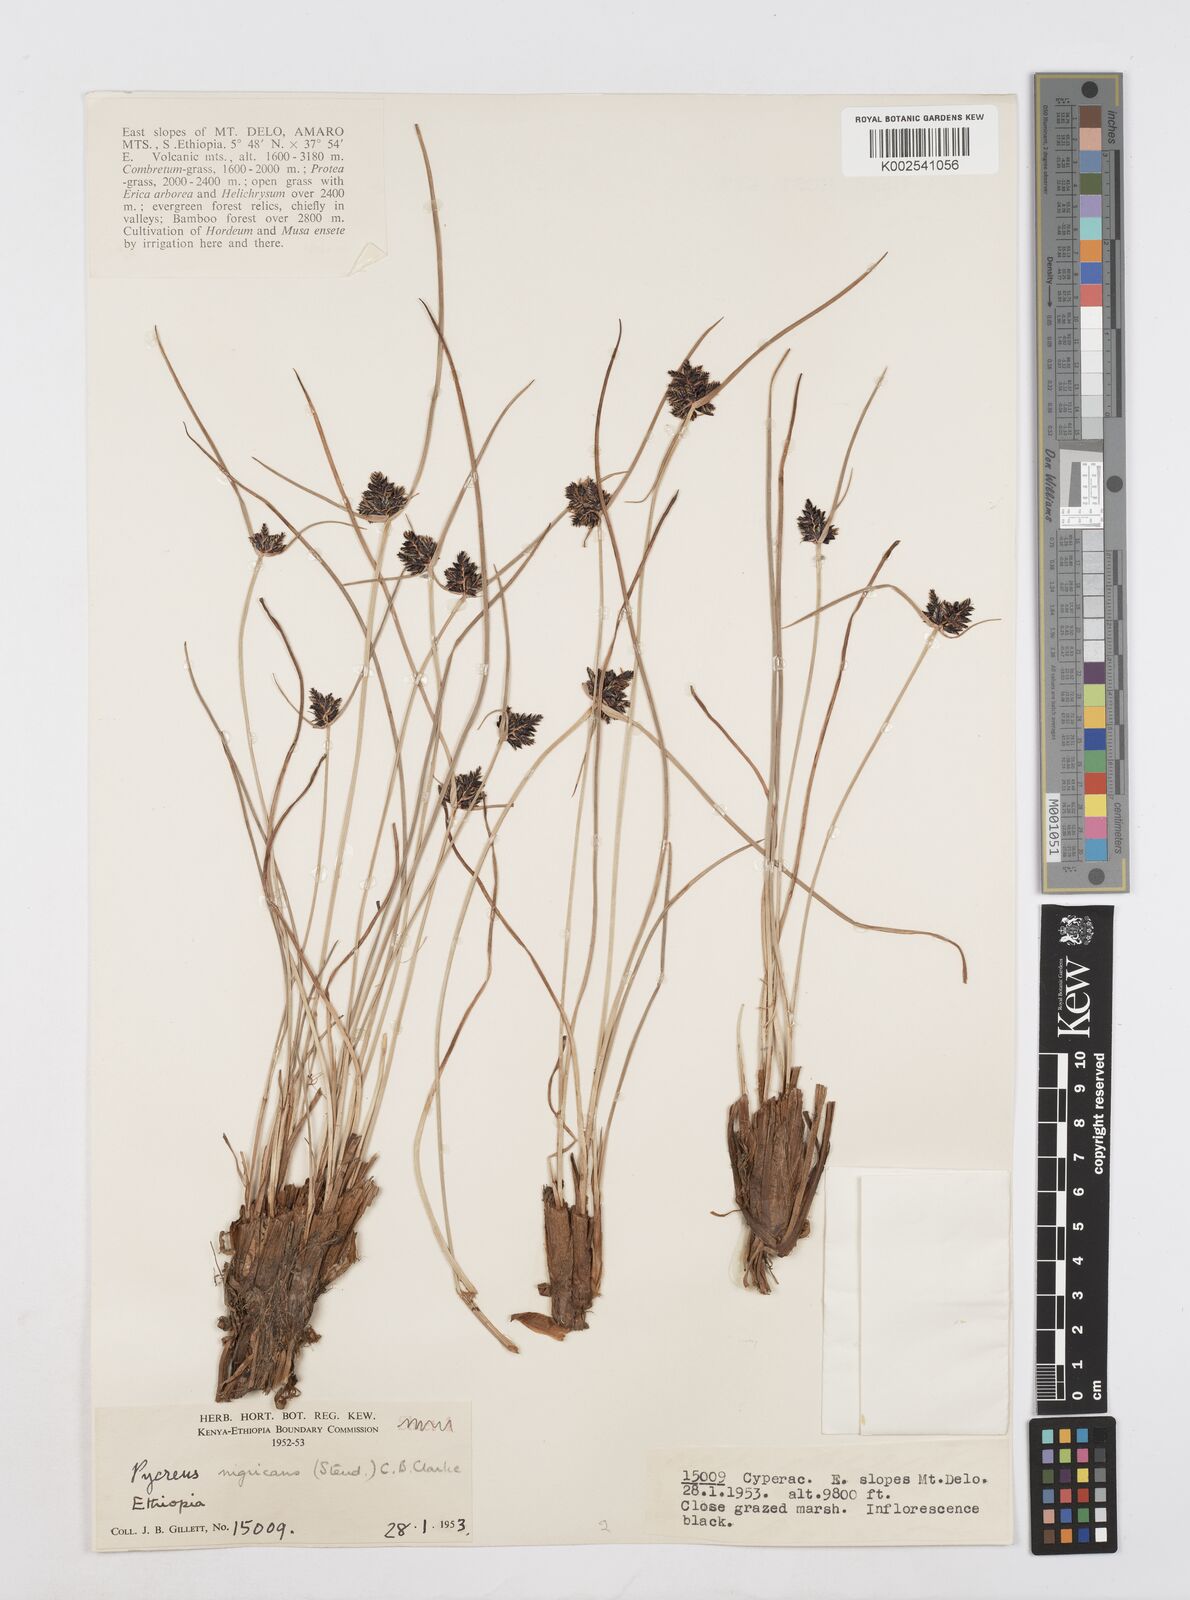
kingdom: Plantae
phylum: Tracheophyta
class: Liliopsida
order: Poales
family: Cyperaceae
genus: Cyperus
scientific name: Cyperus nigricans
